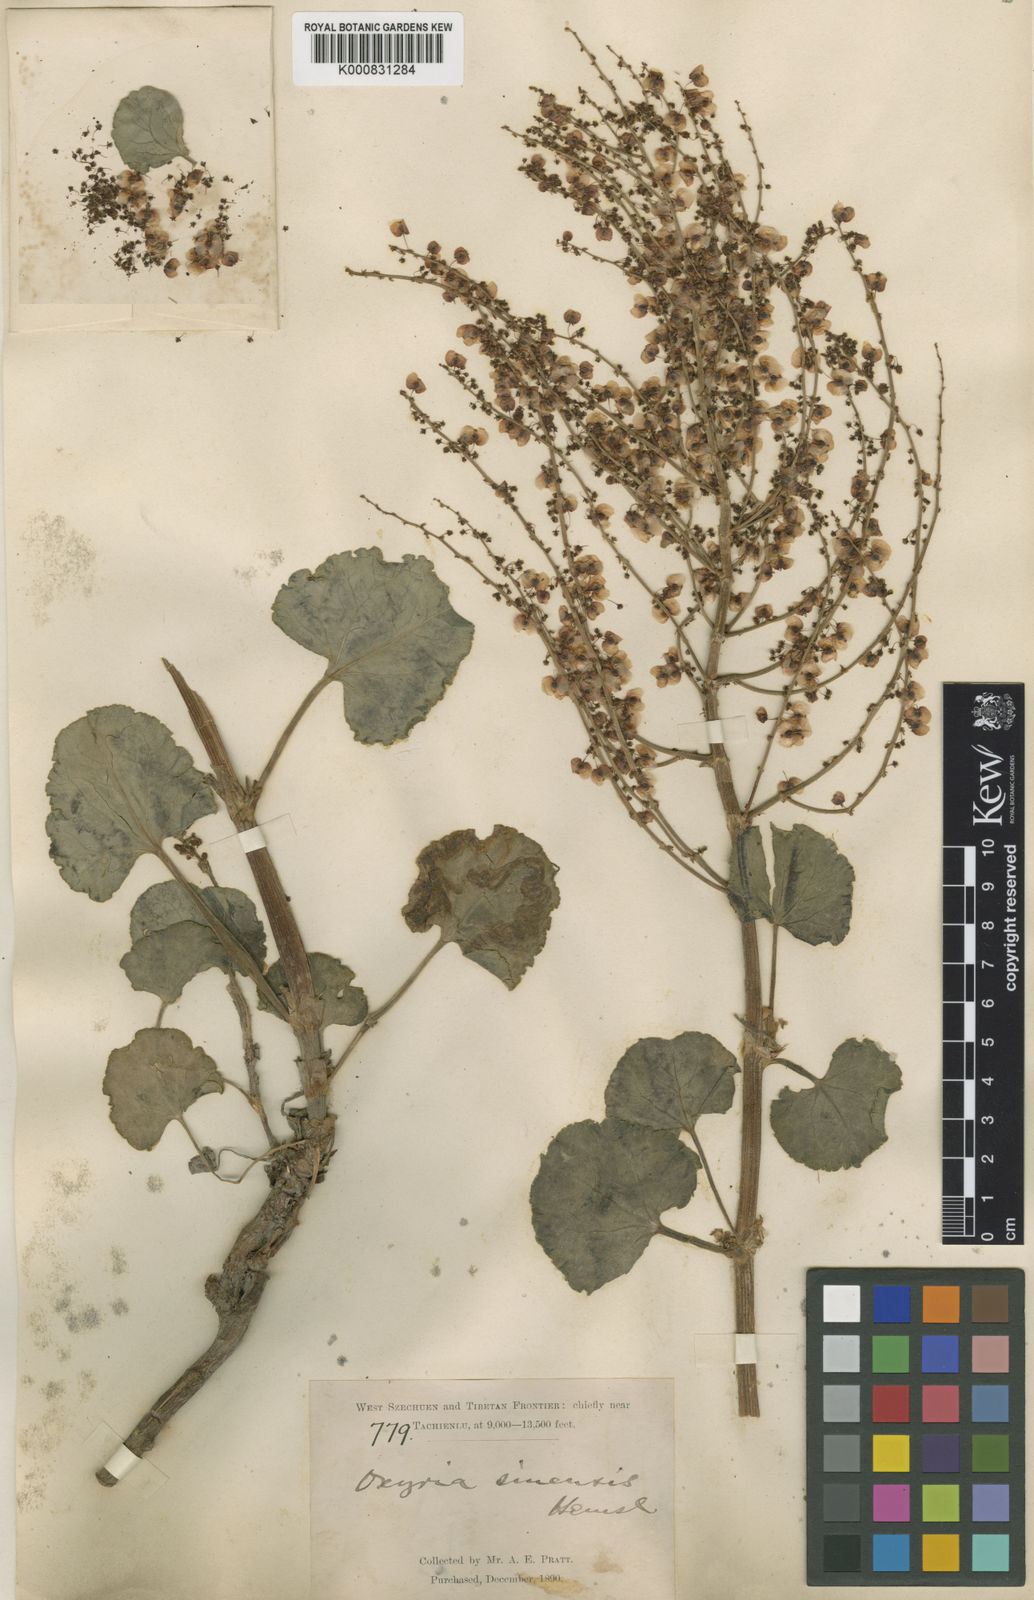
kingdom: Plantae
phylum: Tracheophyta
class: Magnoliopsida
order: Caryophyllales
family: Polygonaceae
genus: Oxyria
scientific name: Oxyria sinensis
